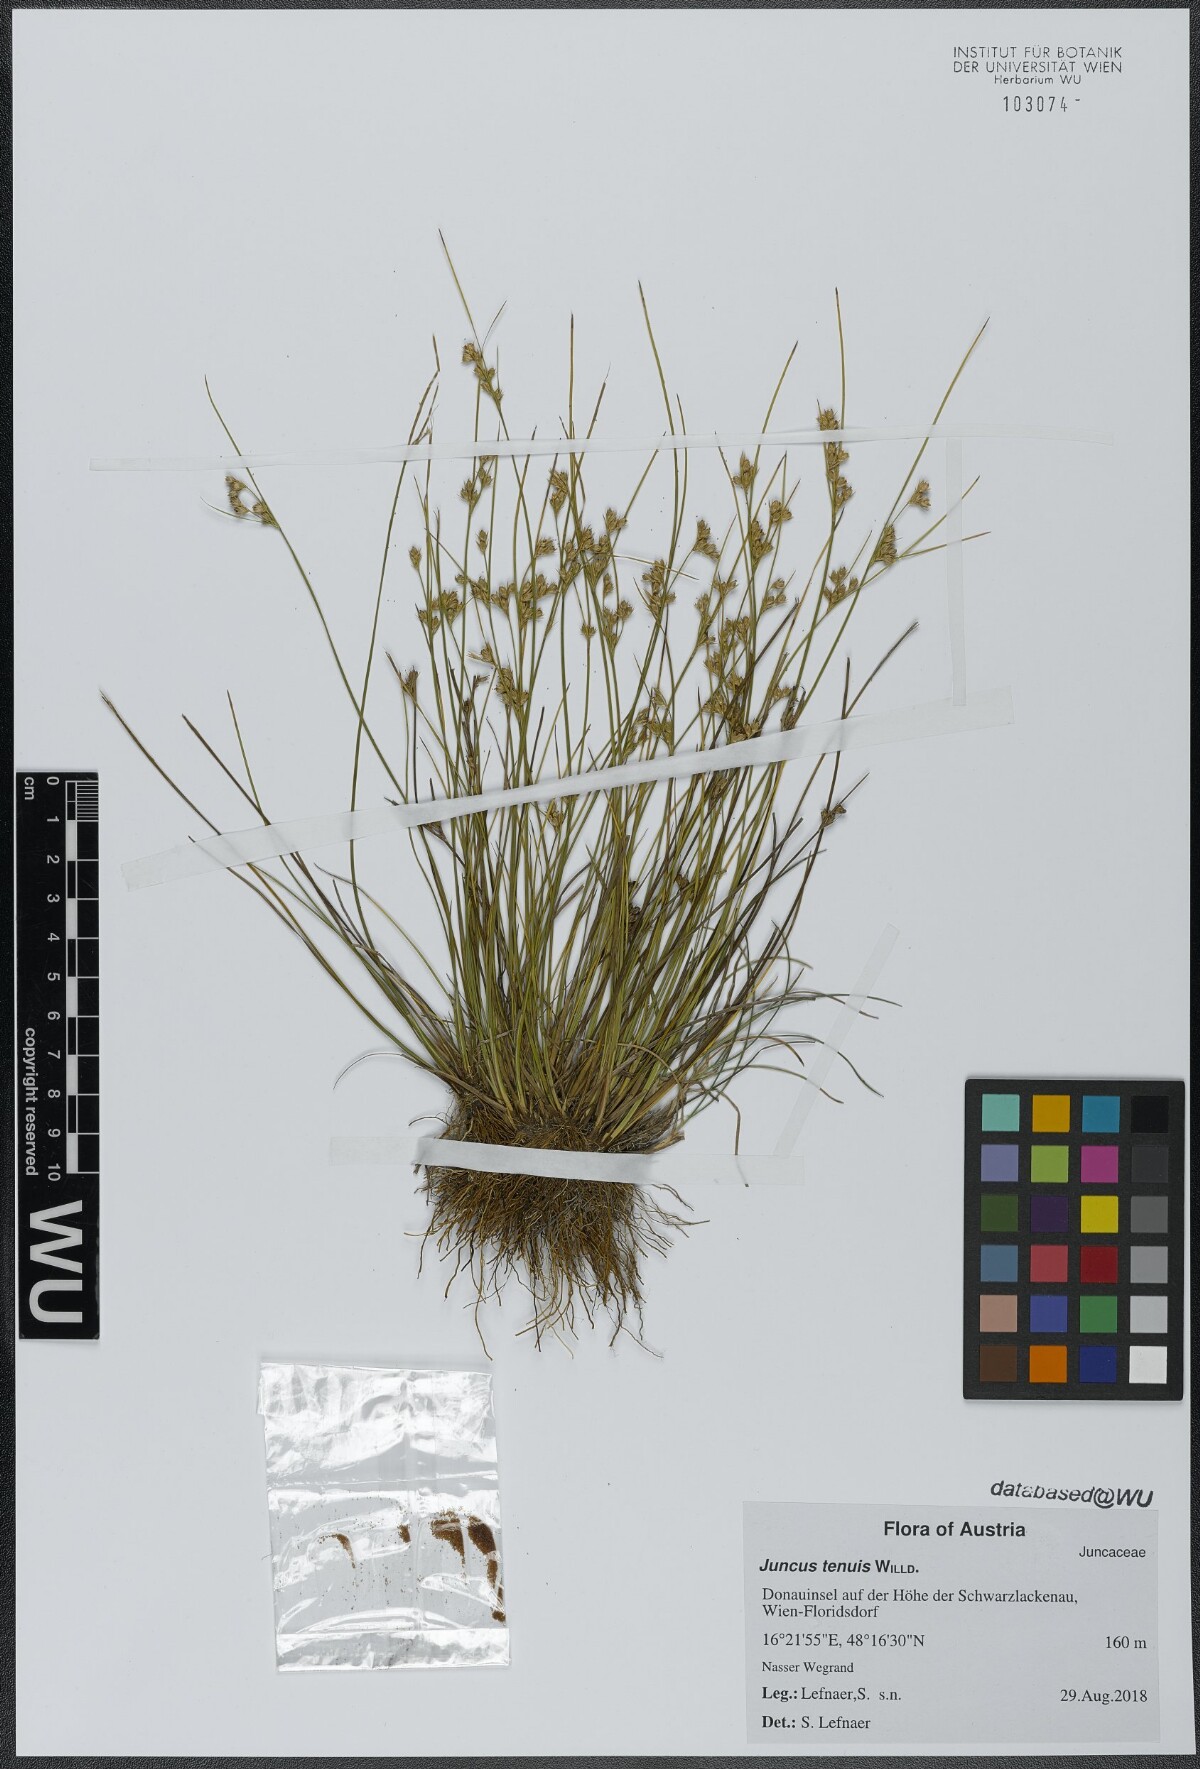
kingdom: Plantae
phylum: Tracheophyta
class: Liliopsida
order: Poales
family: Juncaceae
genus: Juncus
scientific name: Juncus tenuis
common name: Slender rush
